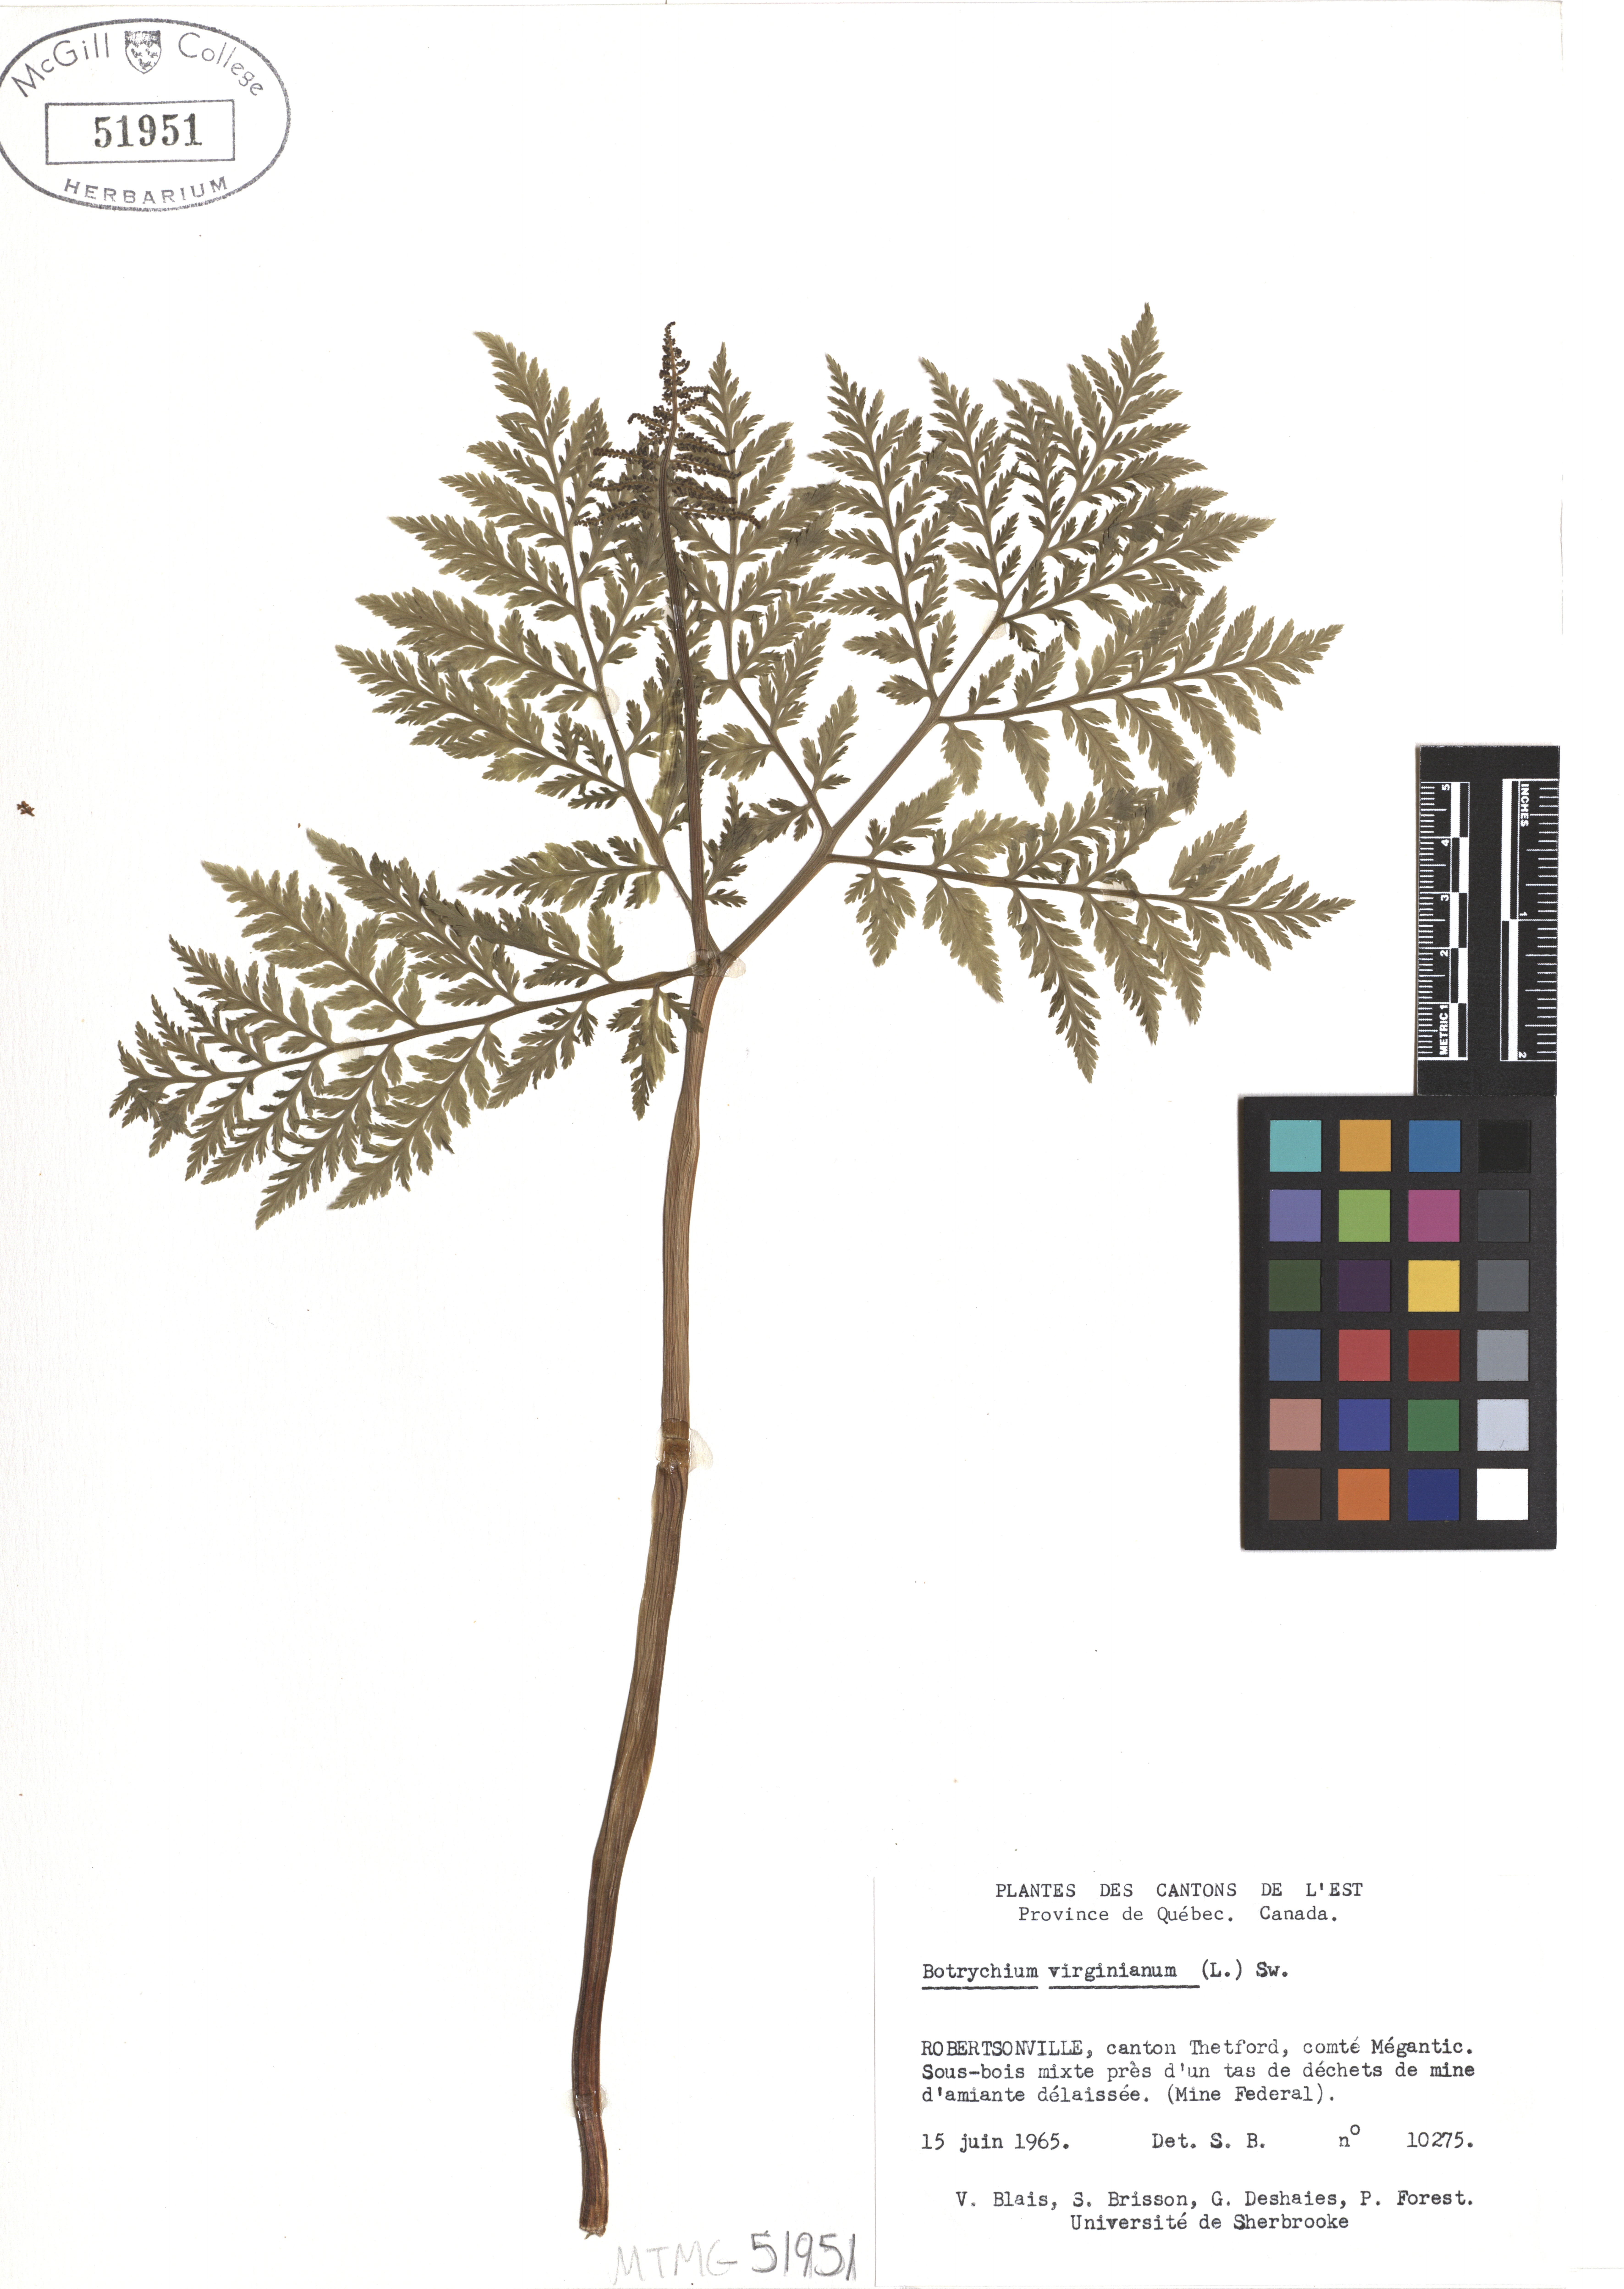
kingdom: Plantae
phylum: Tracheophyta
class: Polypodiopsida
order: Ophioglossales
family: Ophioglossaceae
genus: Botrypus
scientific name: Botrypus virginianus
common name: Common grapefern
